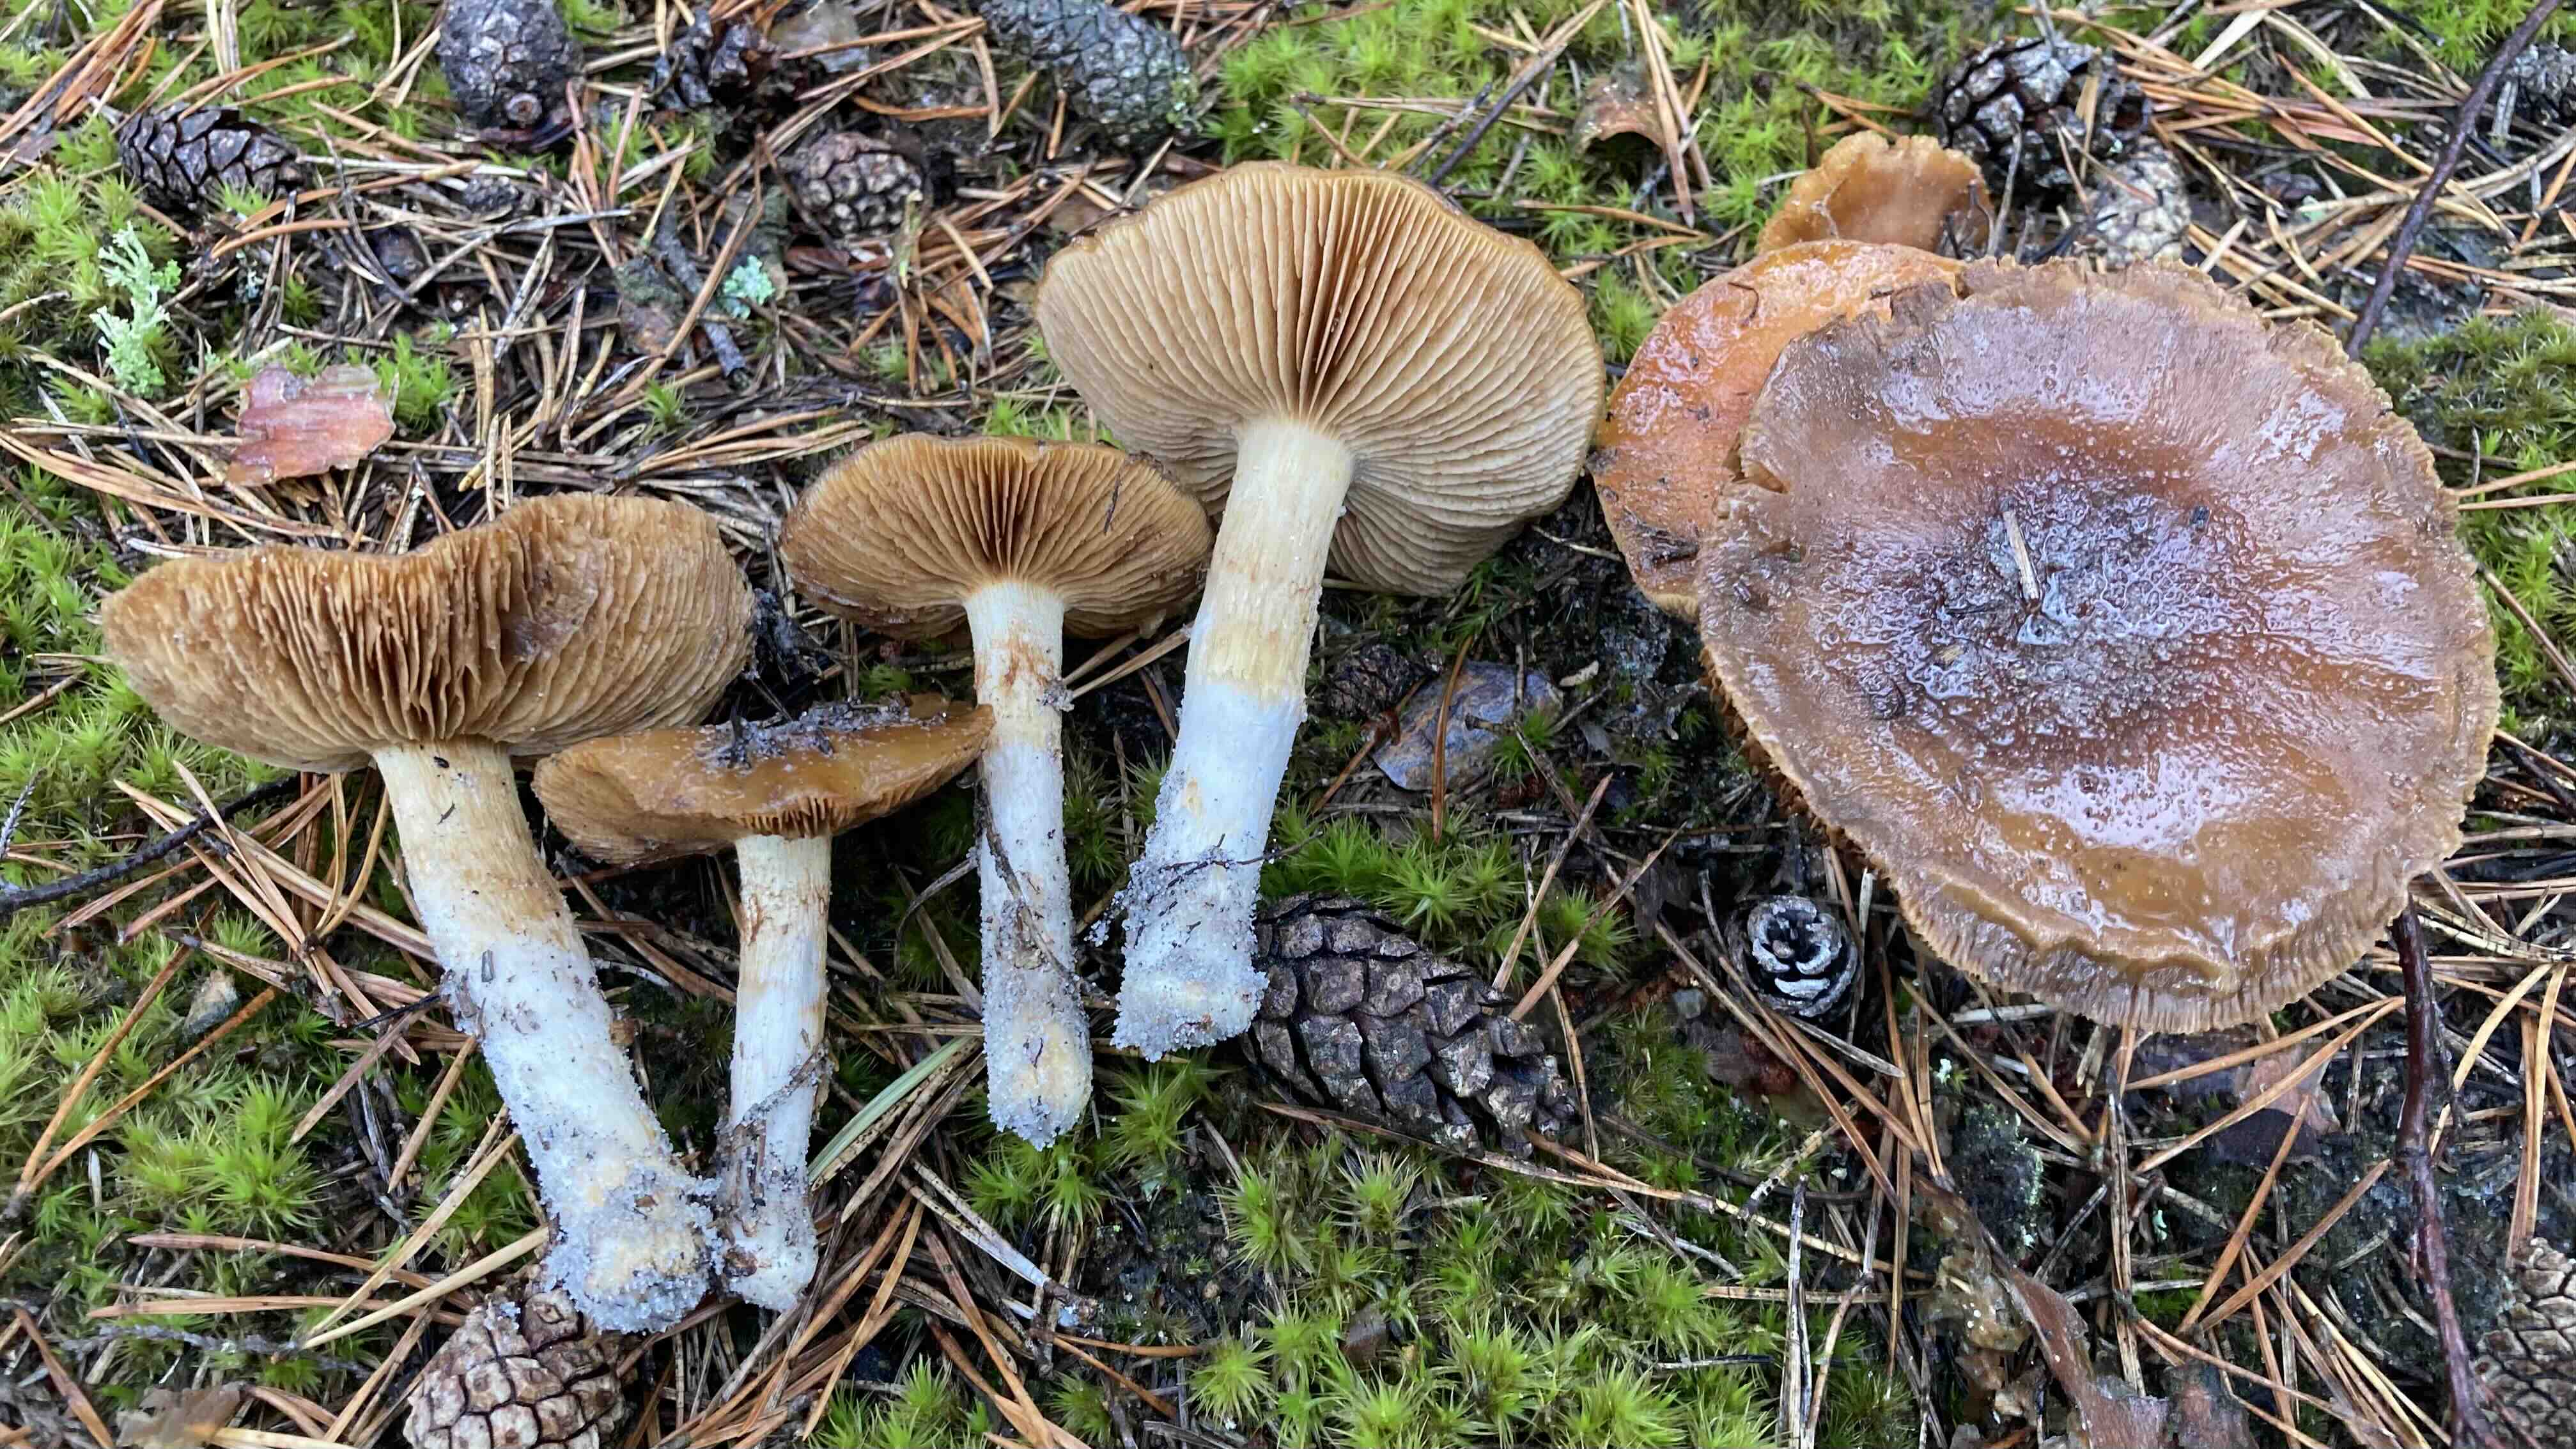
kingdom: Fungi
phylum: Basidiomycota
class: Agaricomycetes
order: Agaricales
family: Cortinariaceae
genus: Cortinarius
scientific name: Cortinarius mucosus
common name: kastaniebrun slørhat
